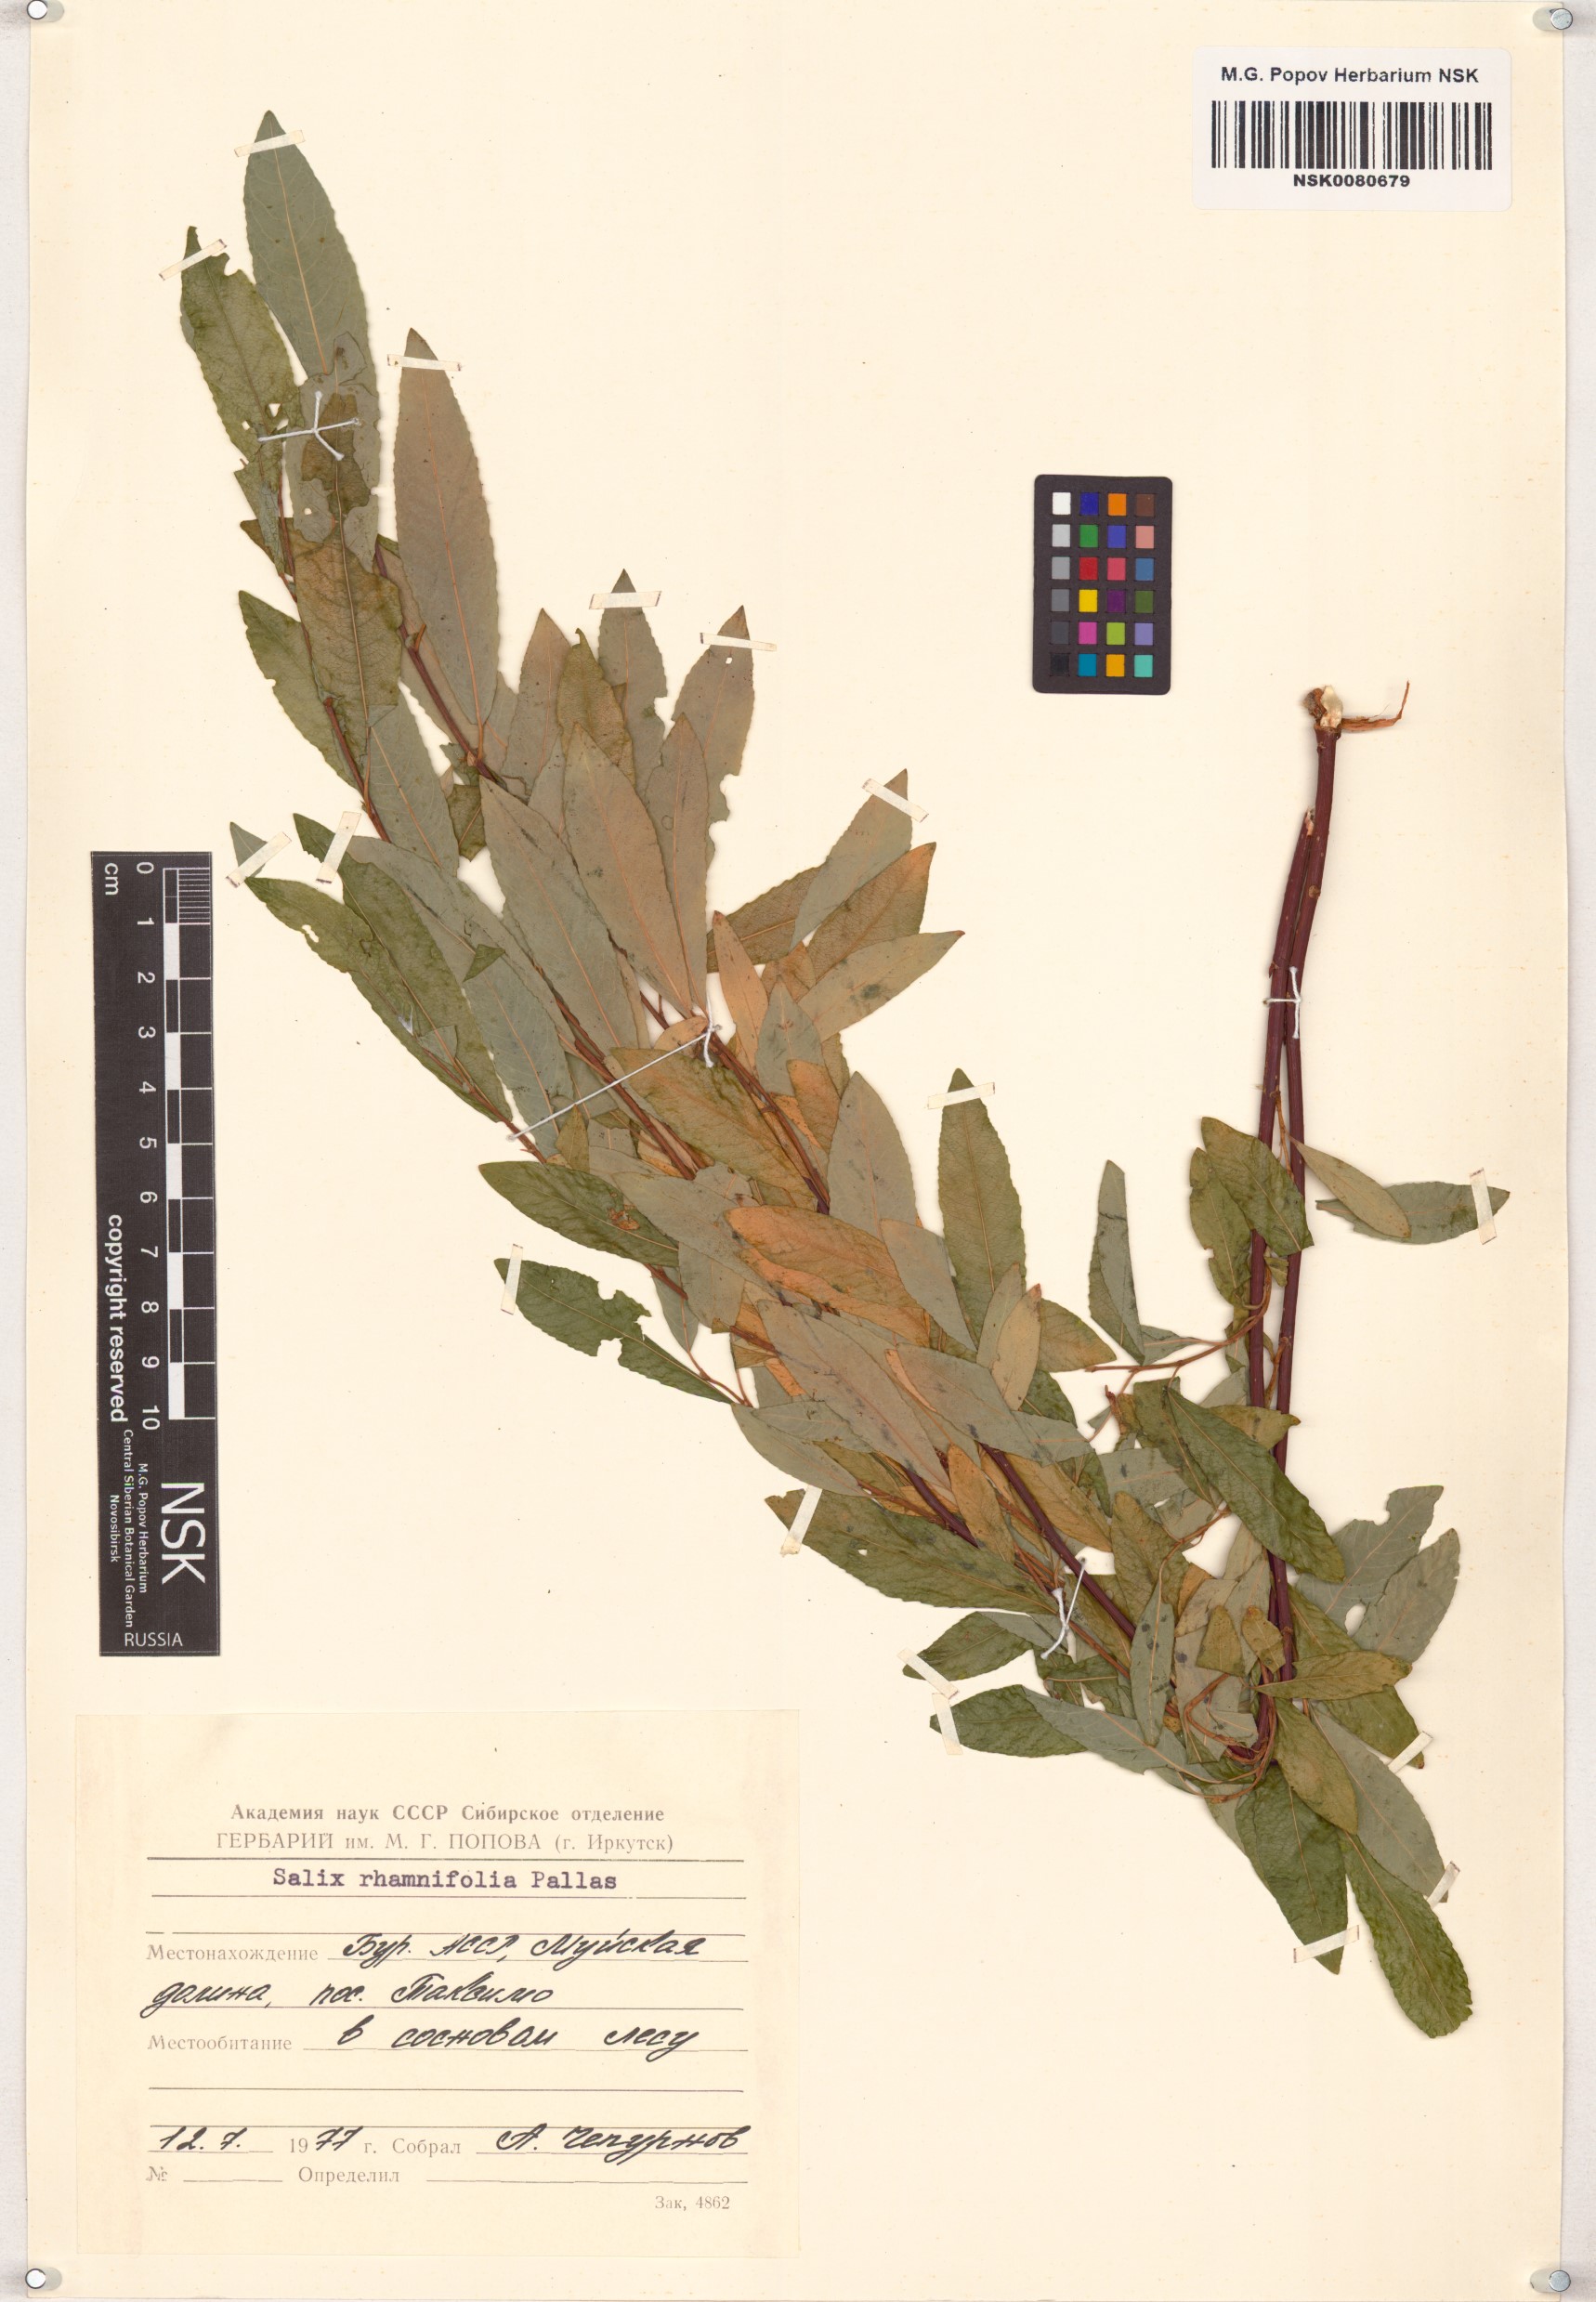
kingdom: Plantae
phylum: Tracheophyta
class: Magnoliopsida
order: Malpighiales
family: Salicaceae
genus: Salix
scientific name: Salix rhamnifolia
